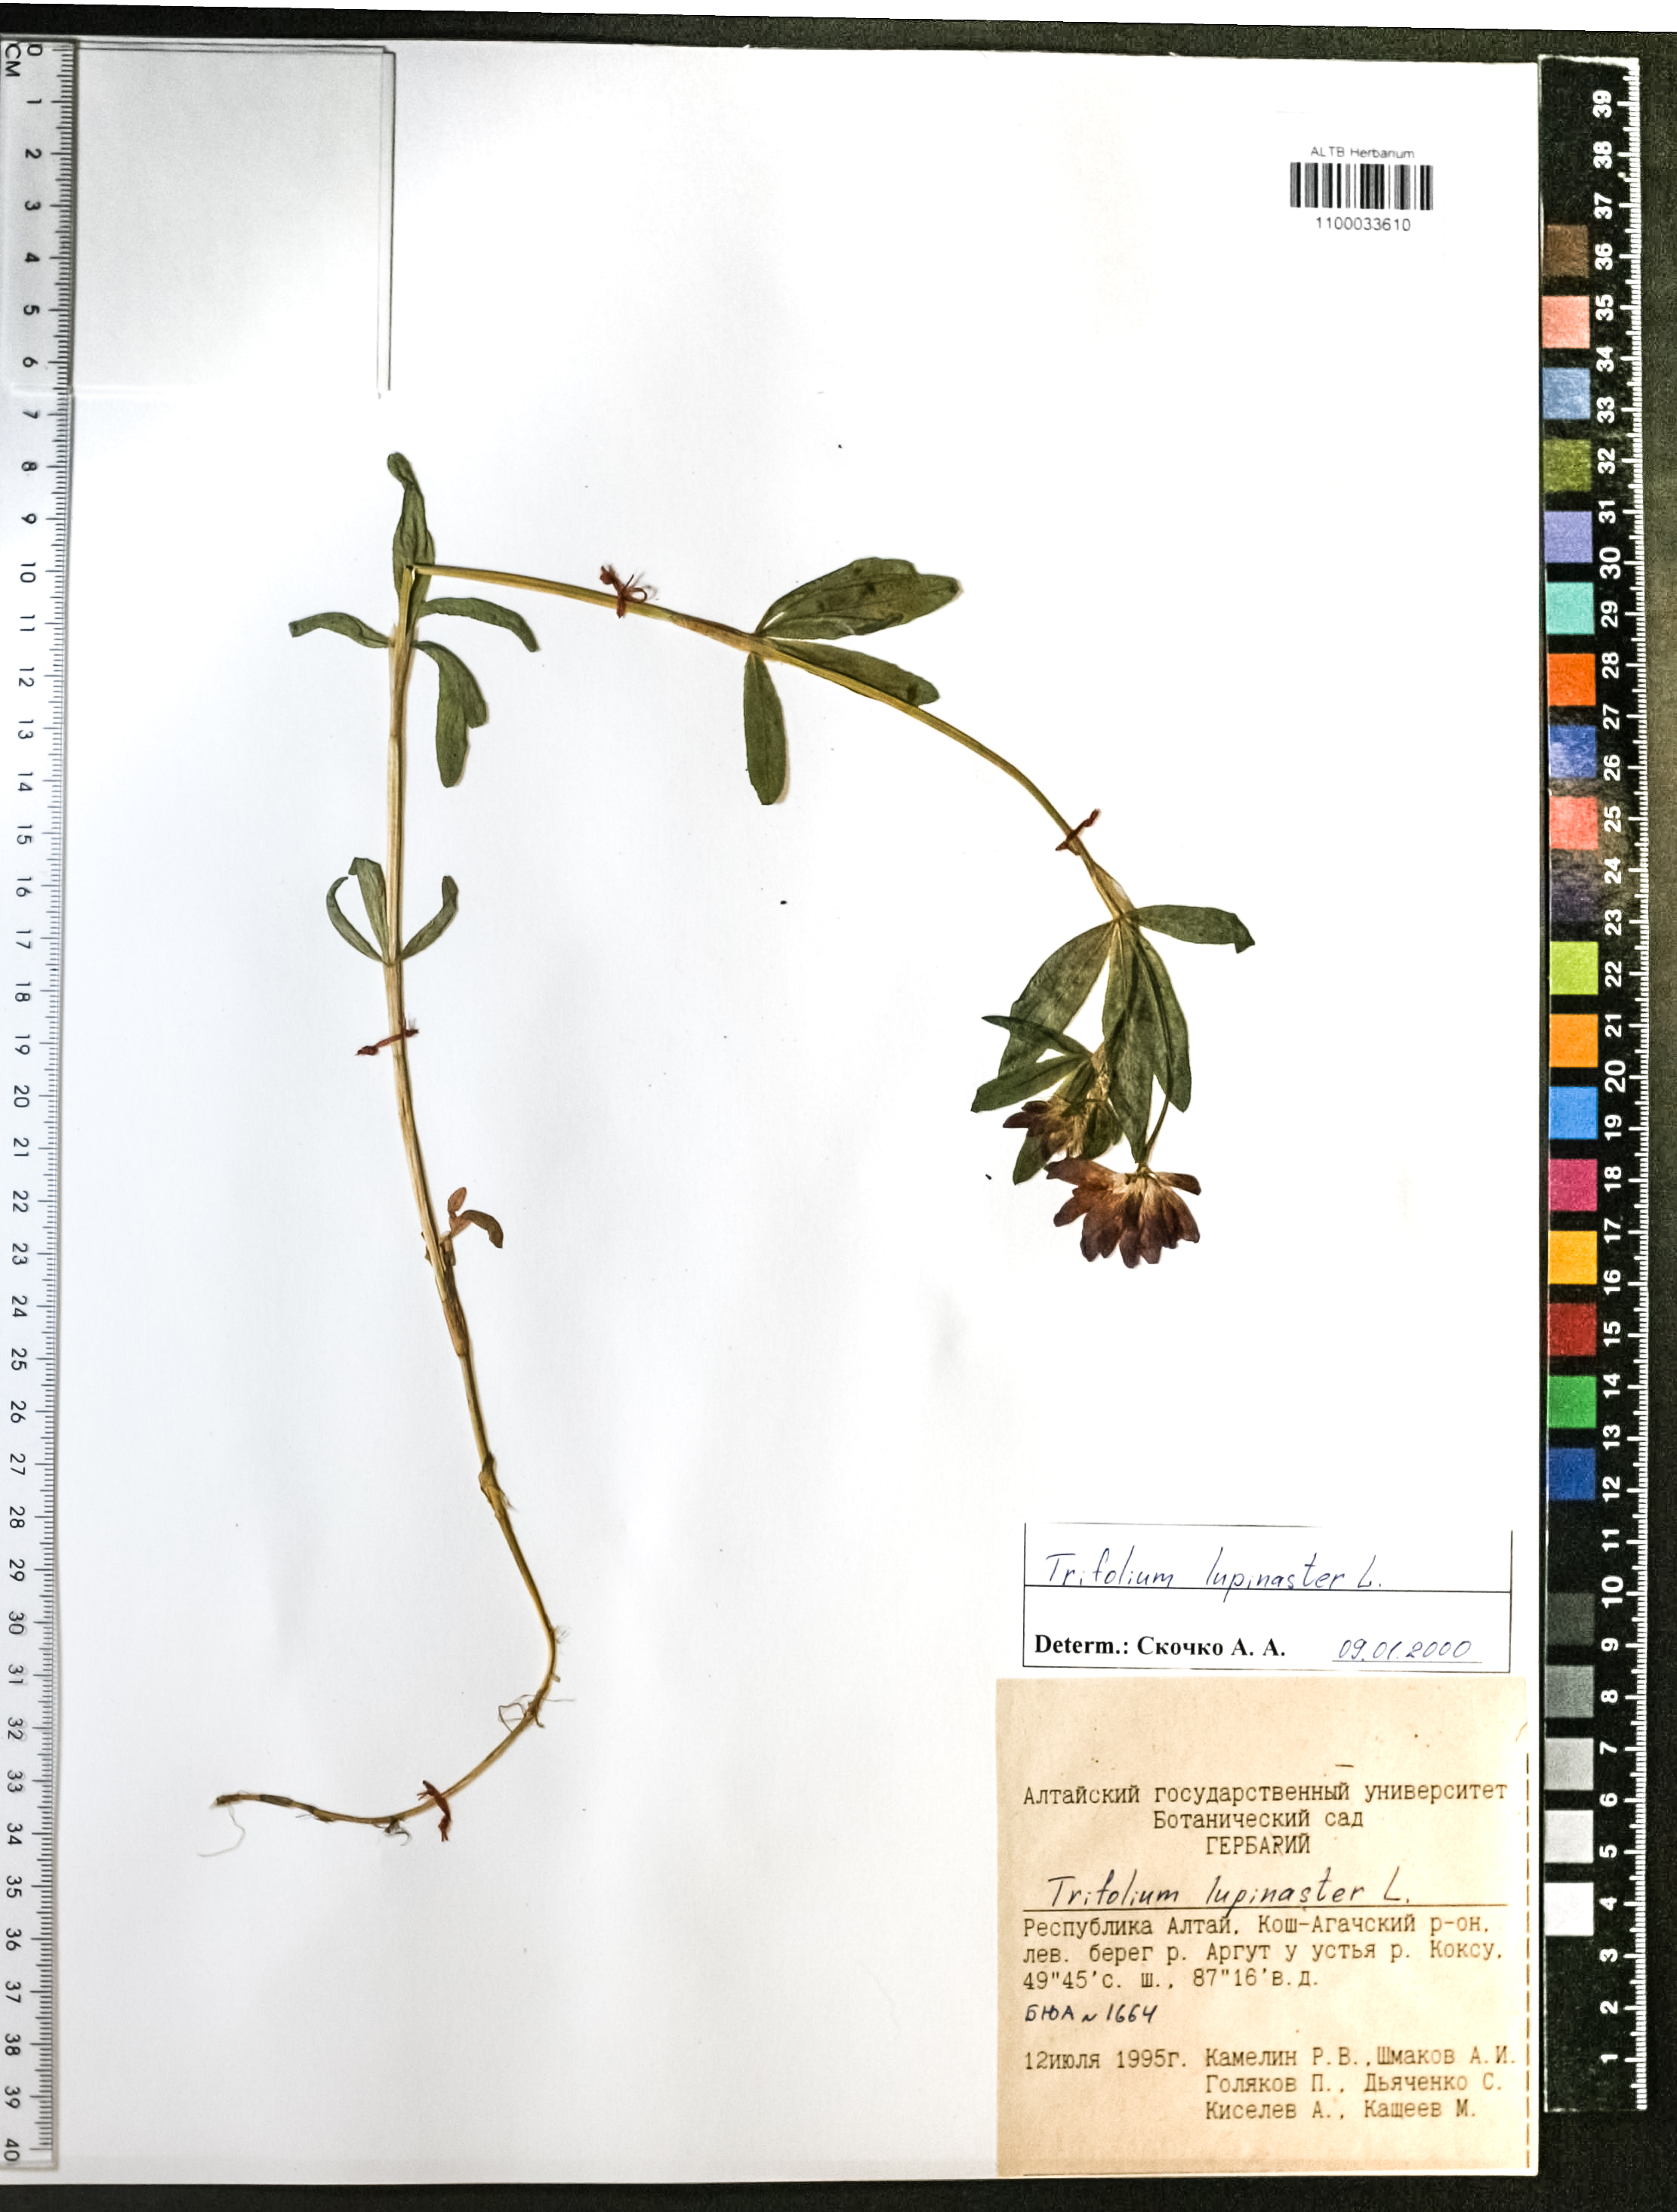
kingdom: Plantae
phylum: Tracheophyta
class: Magnoliopsida
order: Fabales
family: Fabaceae
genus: Trifolium
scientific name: Trifolium lupinaster
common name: Lupine clover
